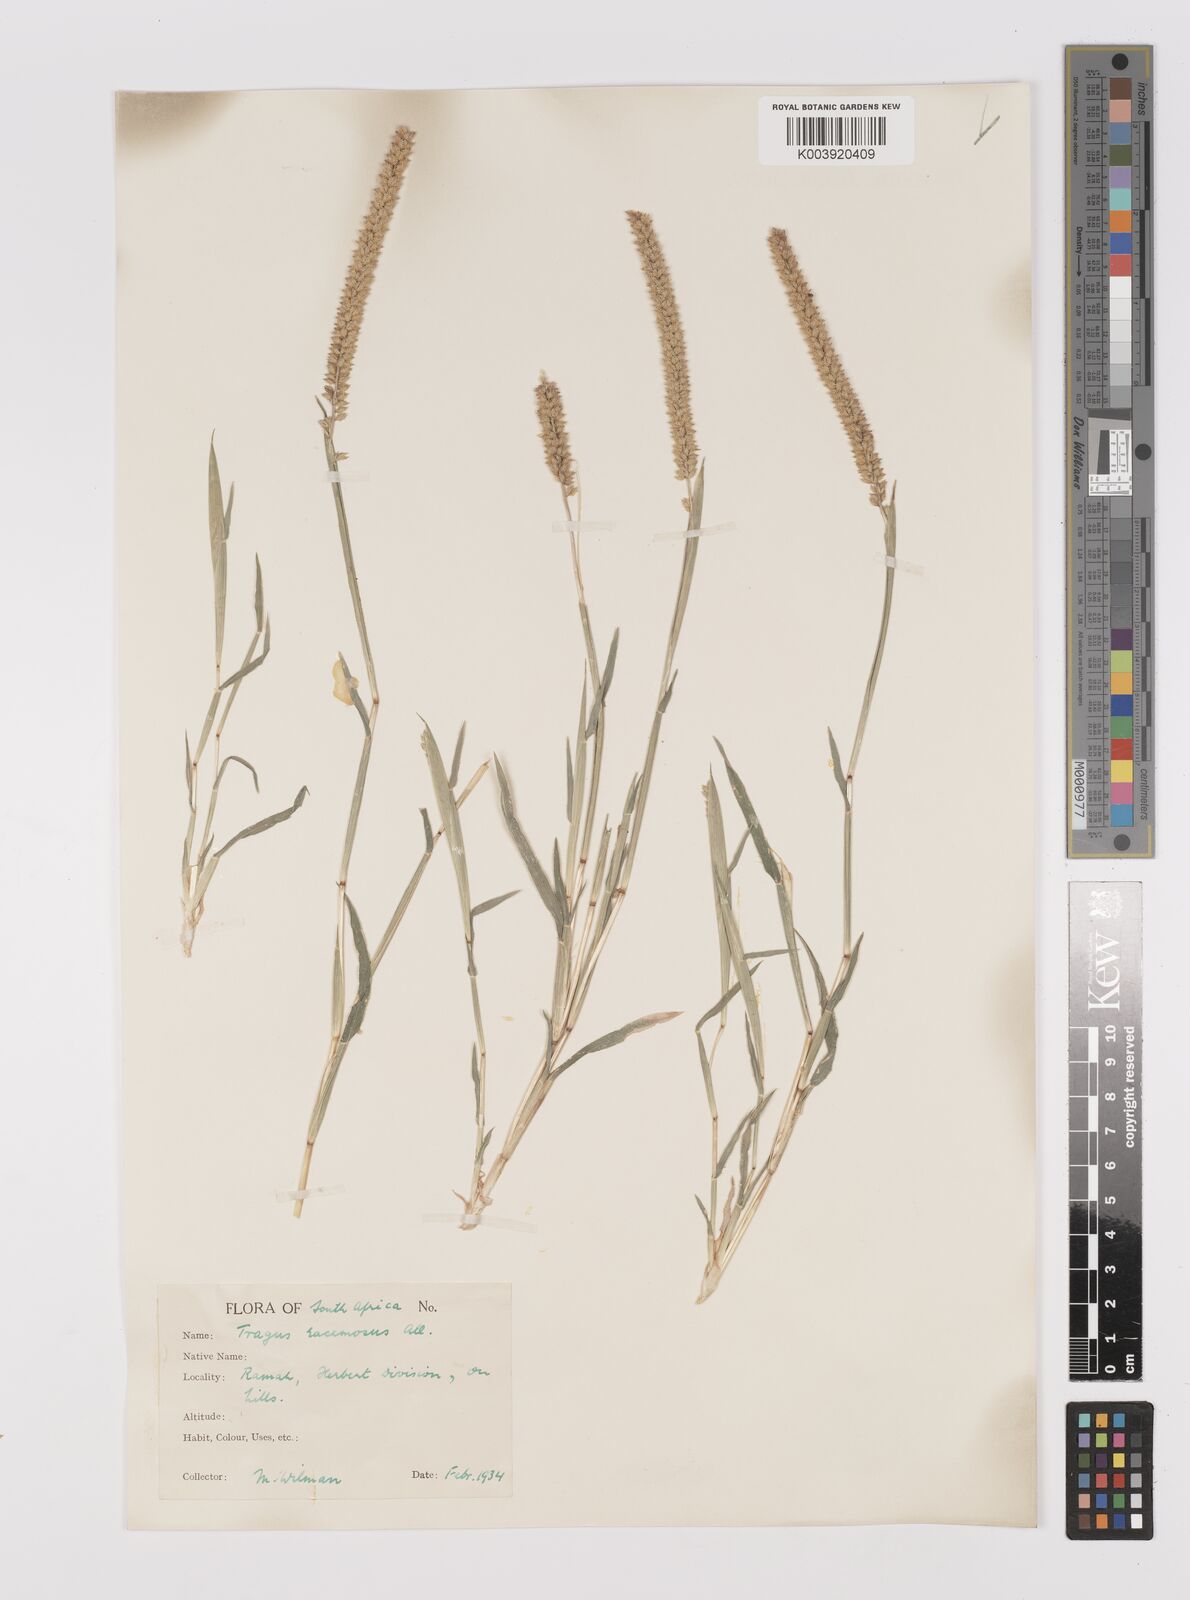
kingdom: Plantae
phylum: Tracheophyta
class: Liliopsida
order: Poales
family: Poaceae
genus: Tragus
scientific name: Tragus berteronianus
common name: African bur-grass
